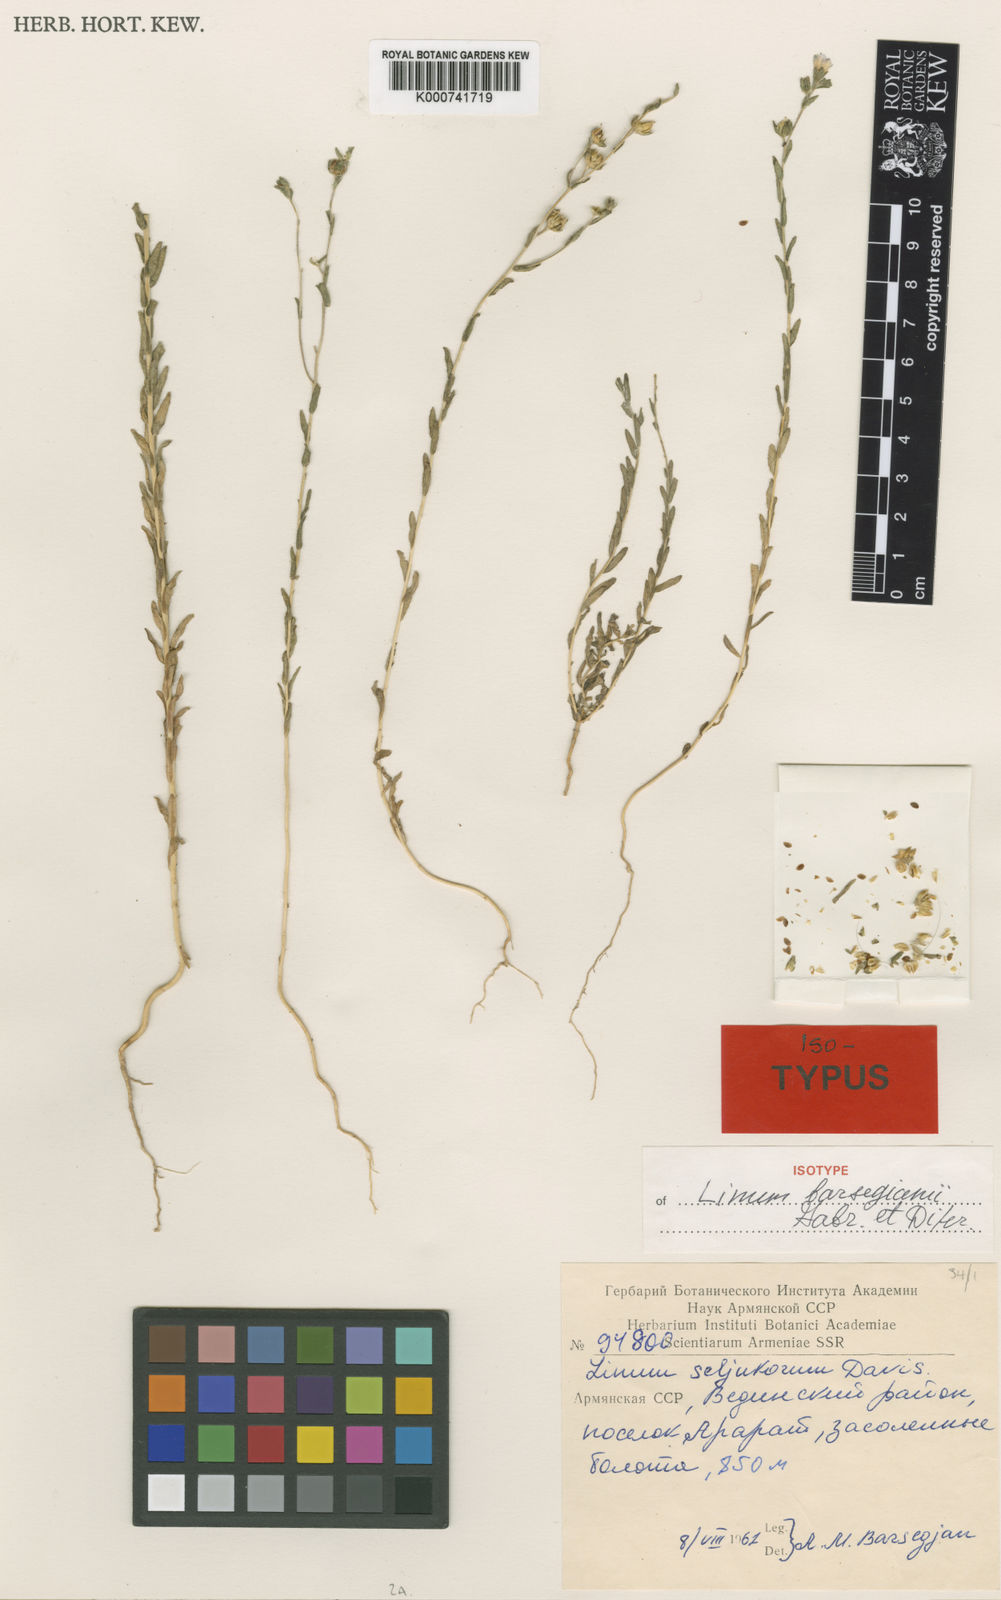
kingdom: Plantae
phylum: Tracheophyta
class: Magnoliopsida
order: Malpighiales
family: Linaceae
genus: Linum
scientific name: Linum seljukorum
